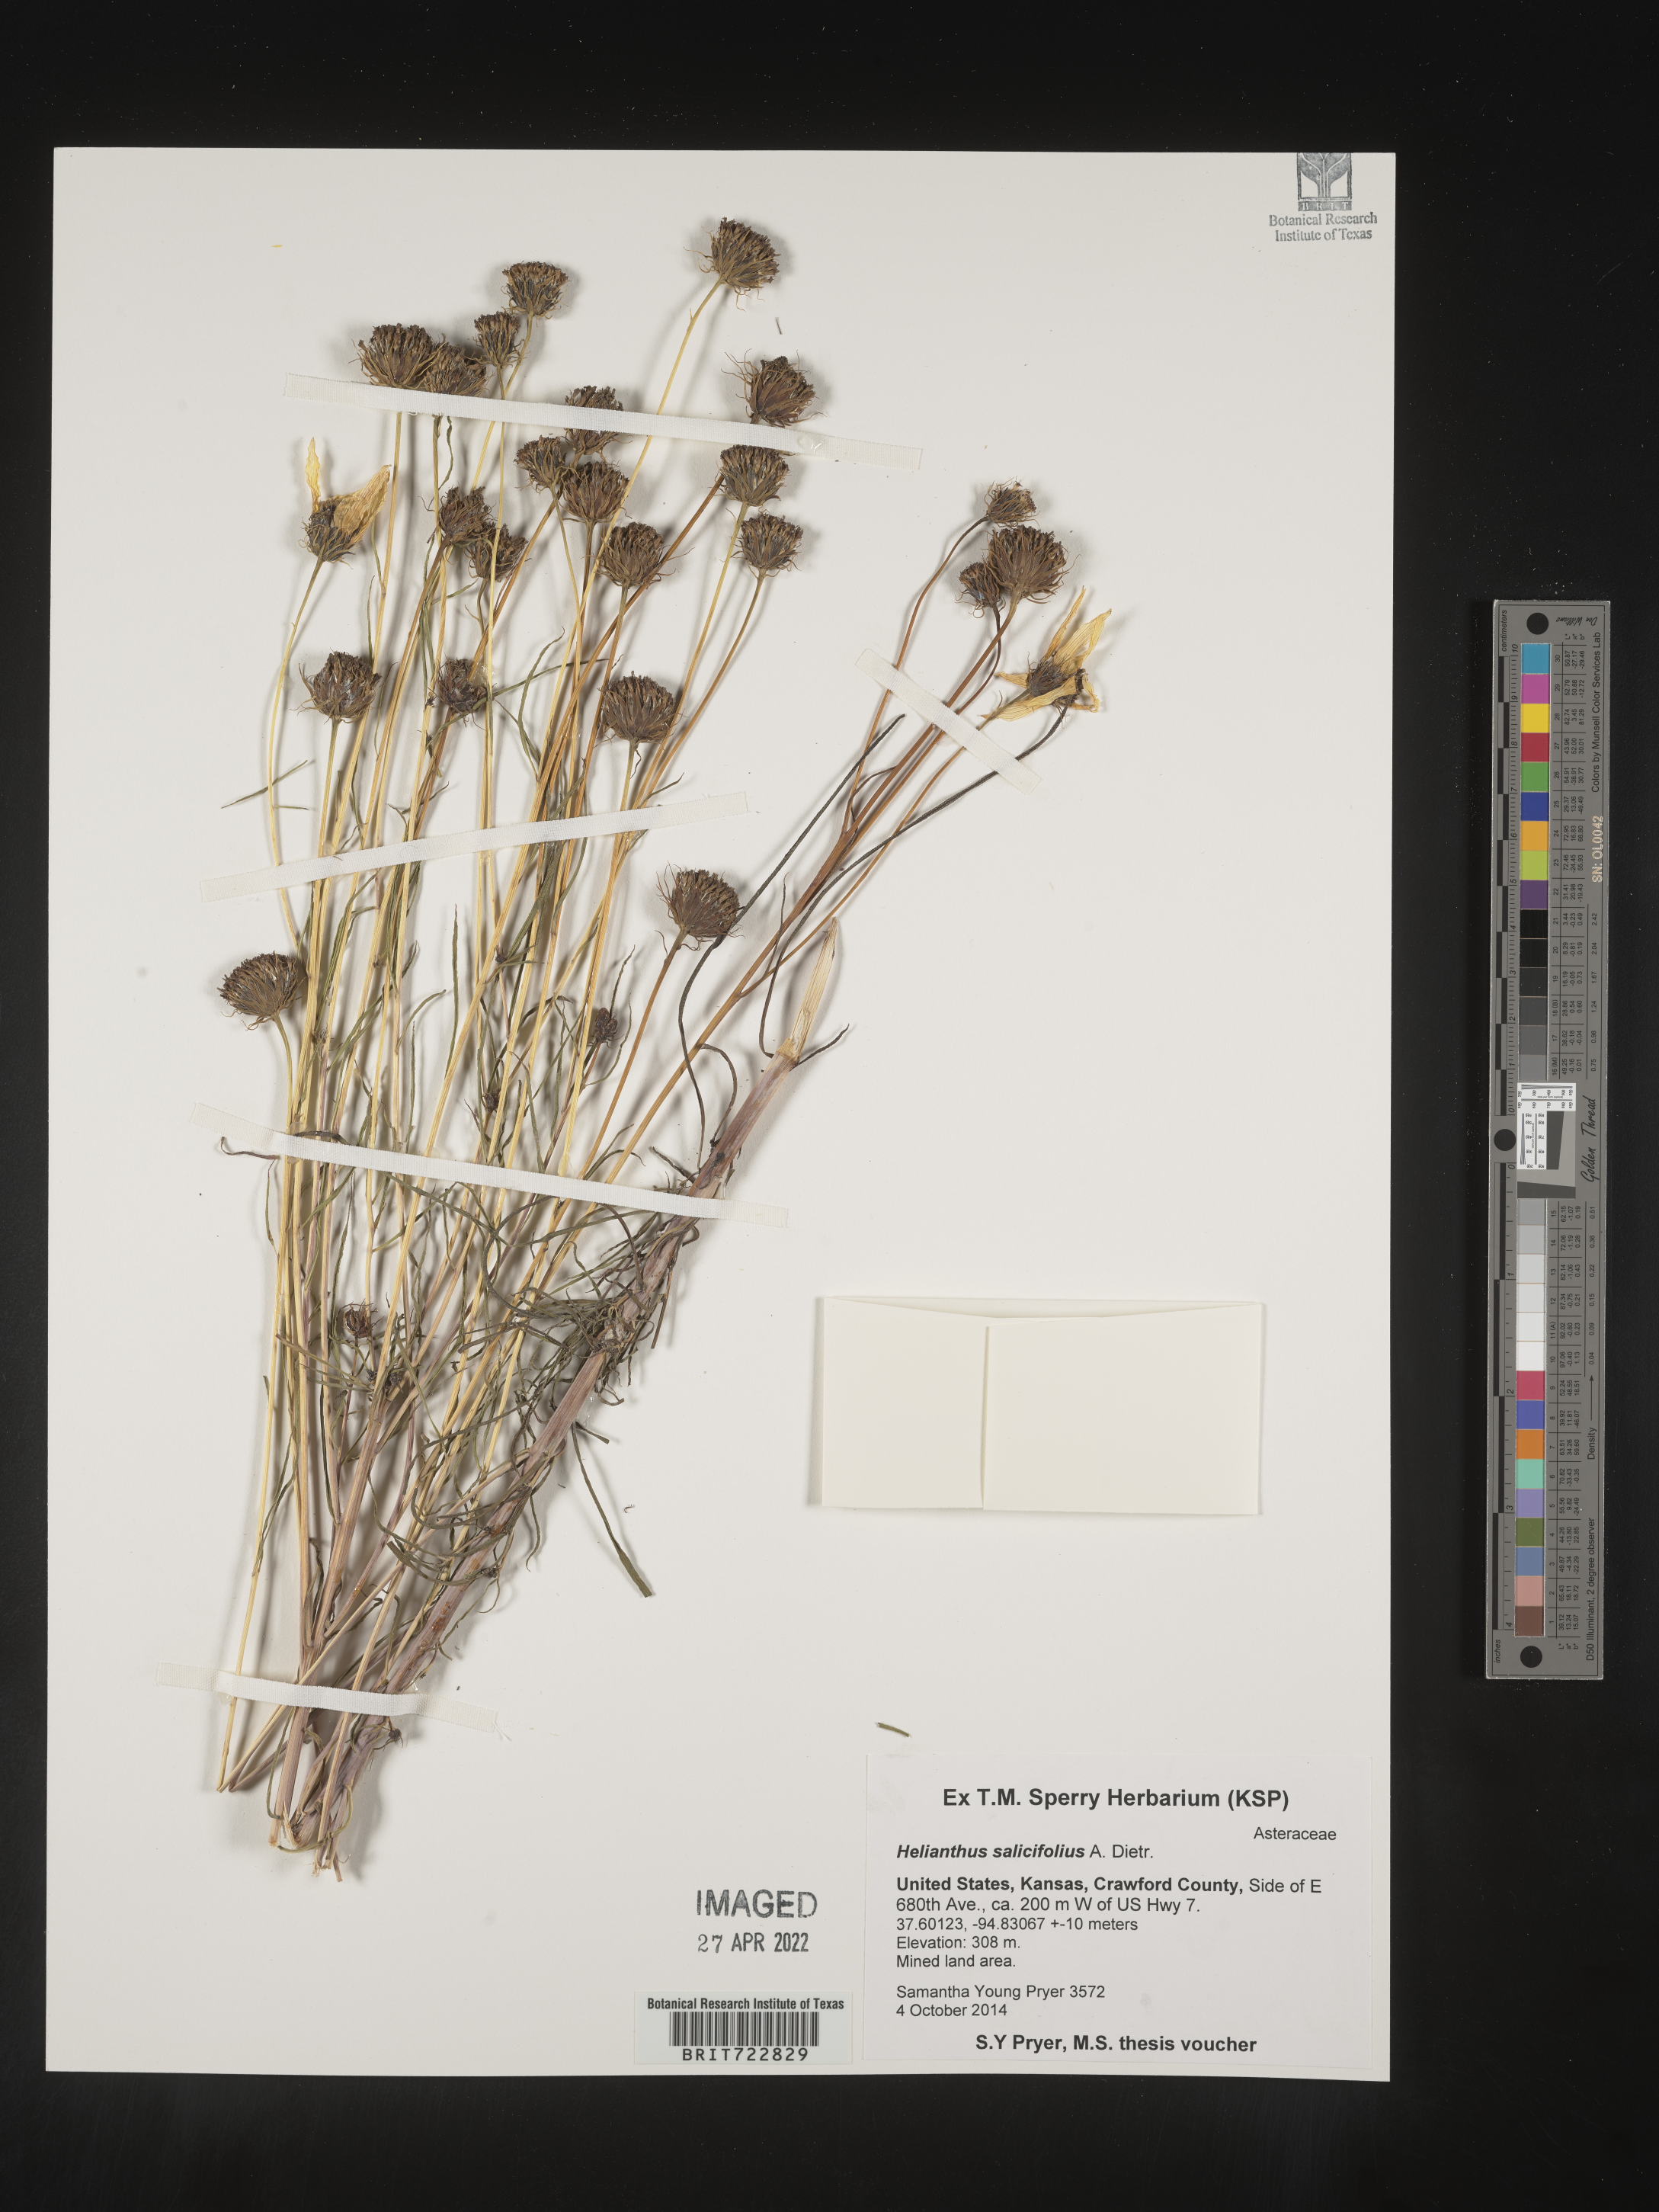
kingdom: Plantae
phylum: Tracheophyta
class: Magnoliopsida
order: Asterales
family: Asteraceae
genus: Helianthus
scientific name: Helianthus salicifolius
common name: Willowleaf sunflower
